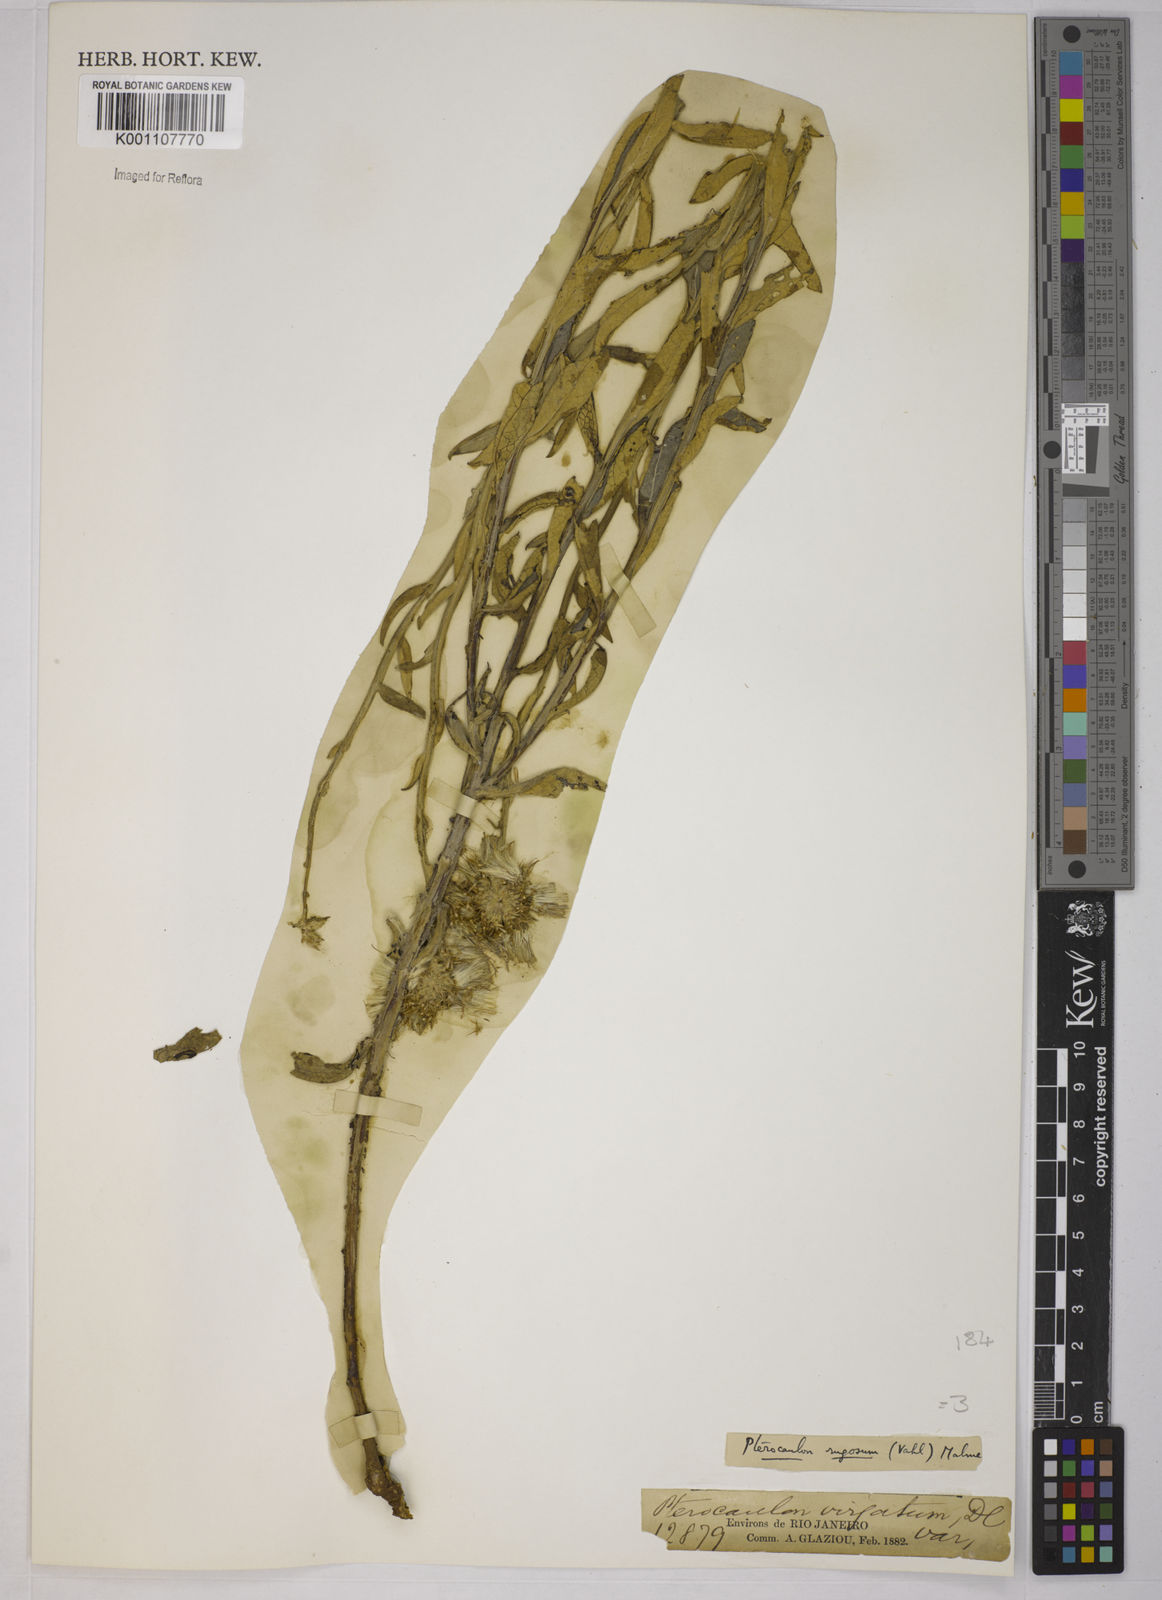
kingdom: Plantae
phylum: Tracheophyta
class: Magnoliopsida
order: Asterales
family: Asteraceae
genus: Pterocaulon
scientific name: Pterocaulon angustifolium
